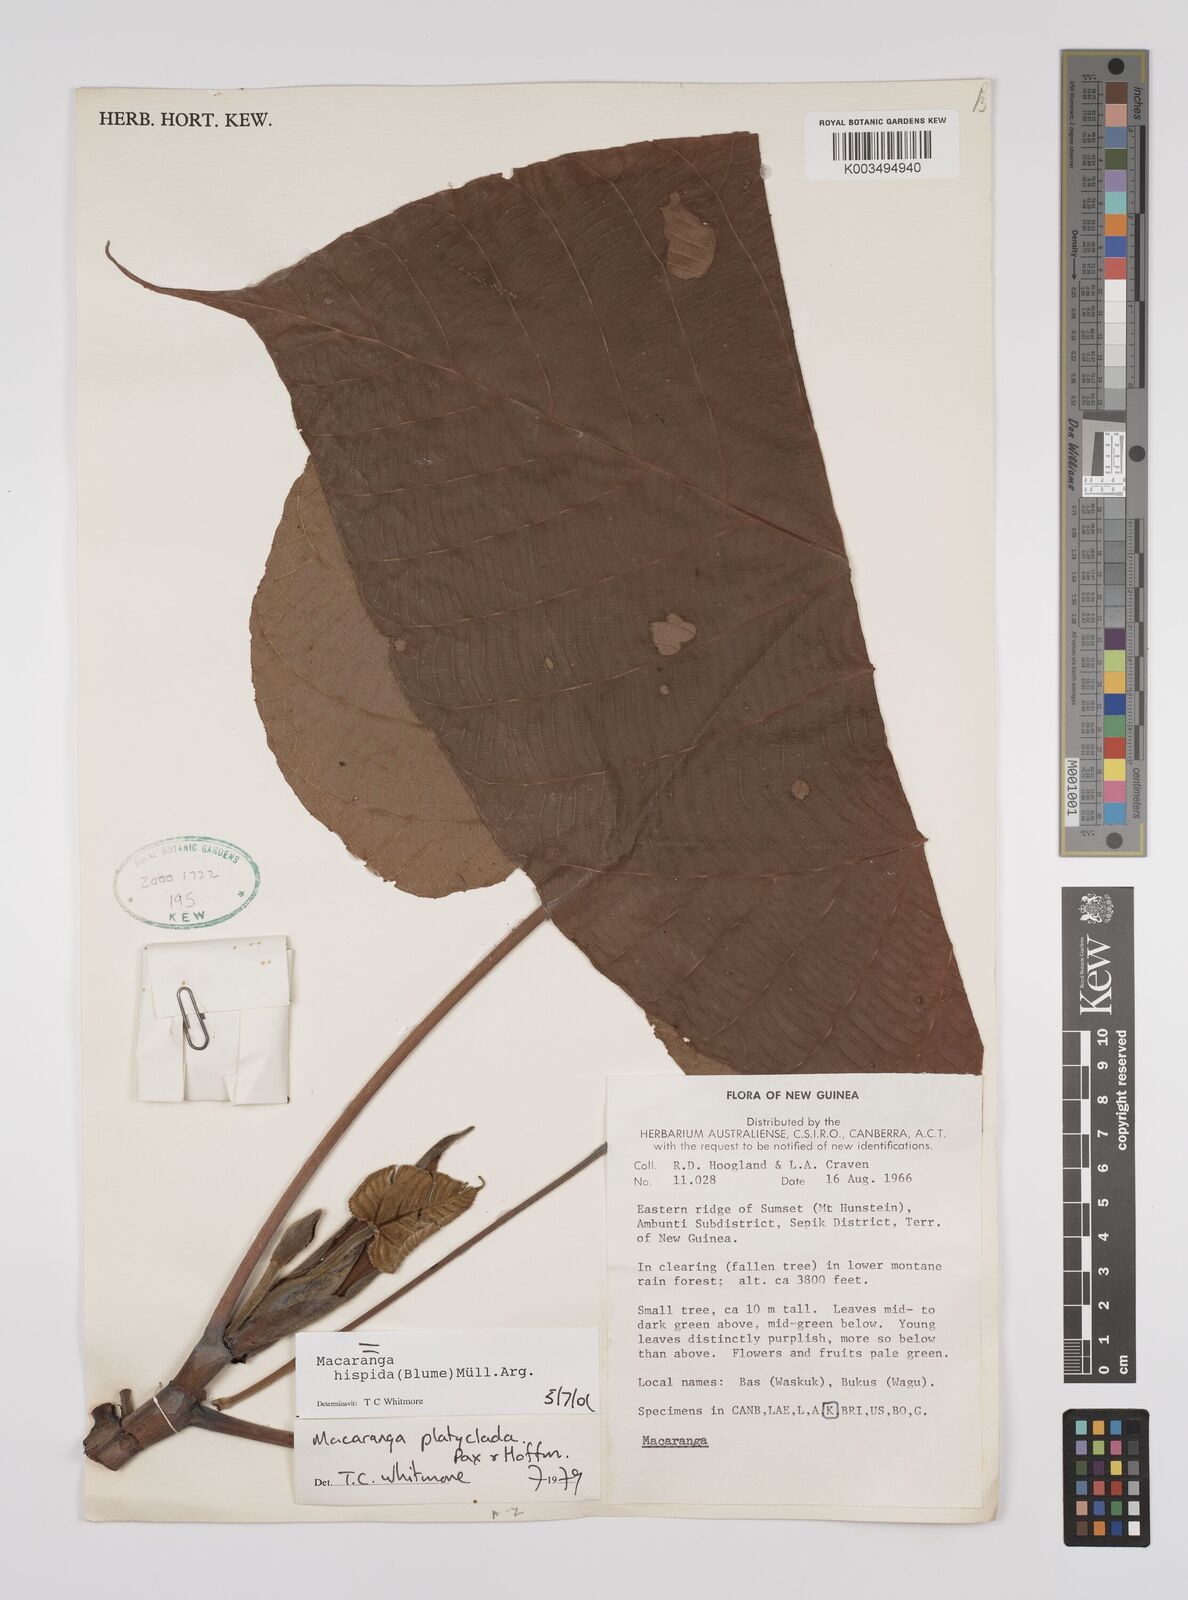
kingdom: Plantae
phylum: Tracheophyta
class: Magnoliopsida
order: Malpighiales
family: Euphorbiaceae
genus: Macaranga
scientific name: Macaranga hispida
